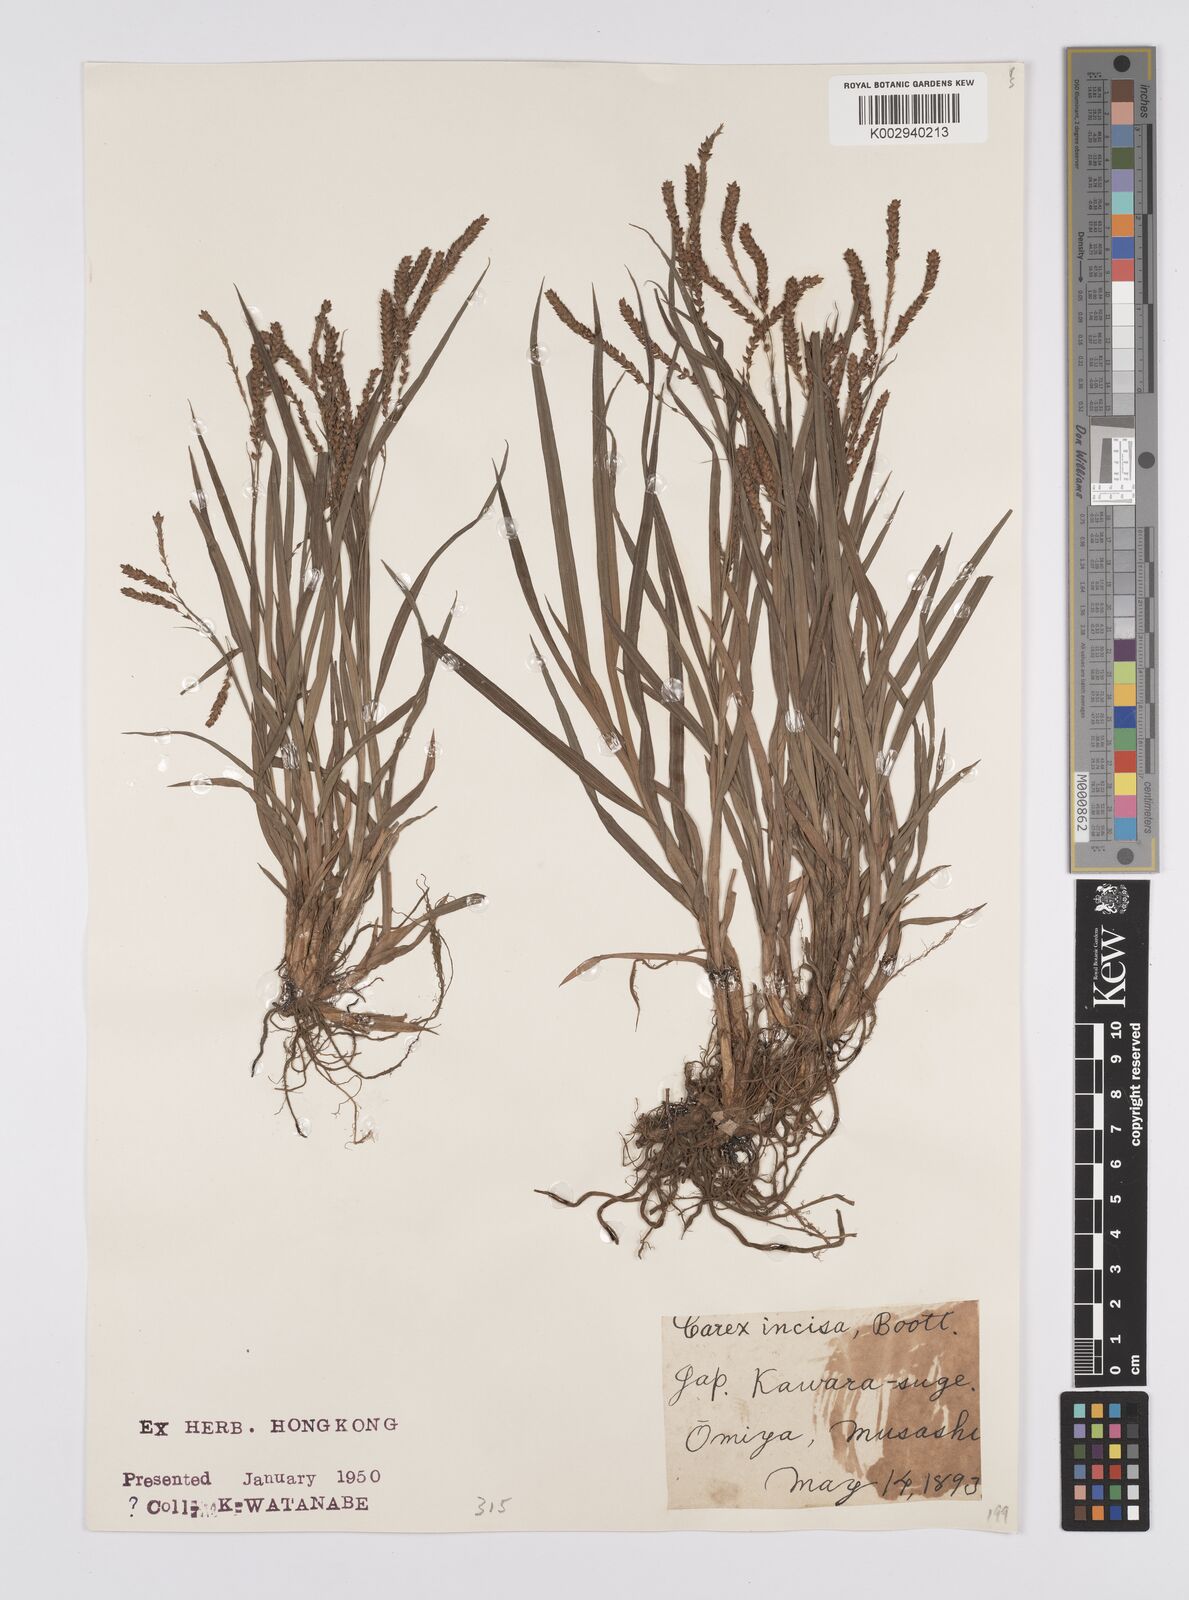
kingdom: Plantae
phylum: Tracheophyta
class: Liliopsida
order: Poales
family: Cyperaceae
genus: Carex
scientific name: Carex incisa
